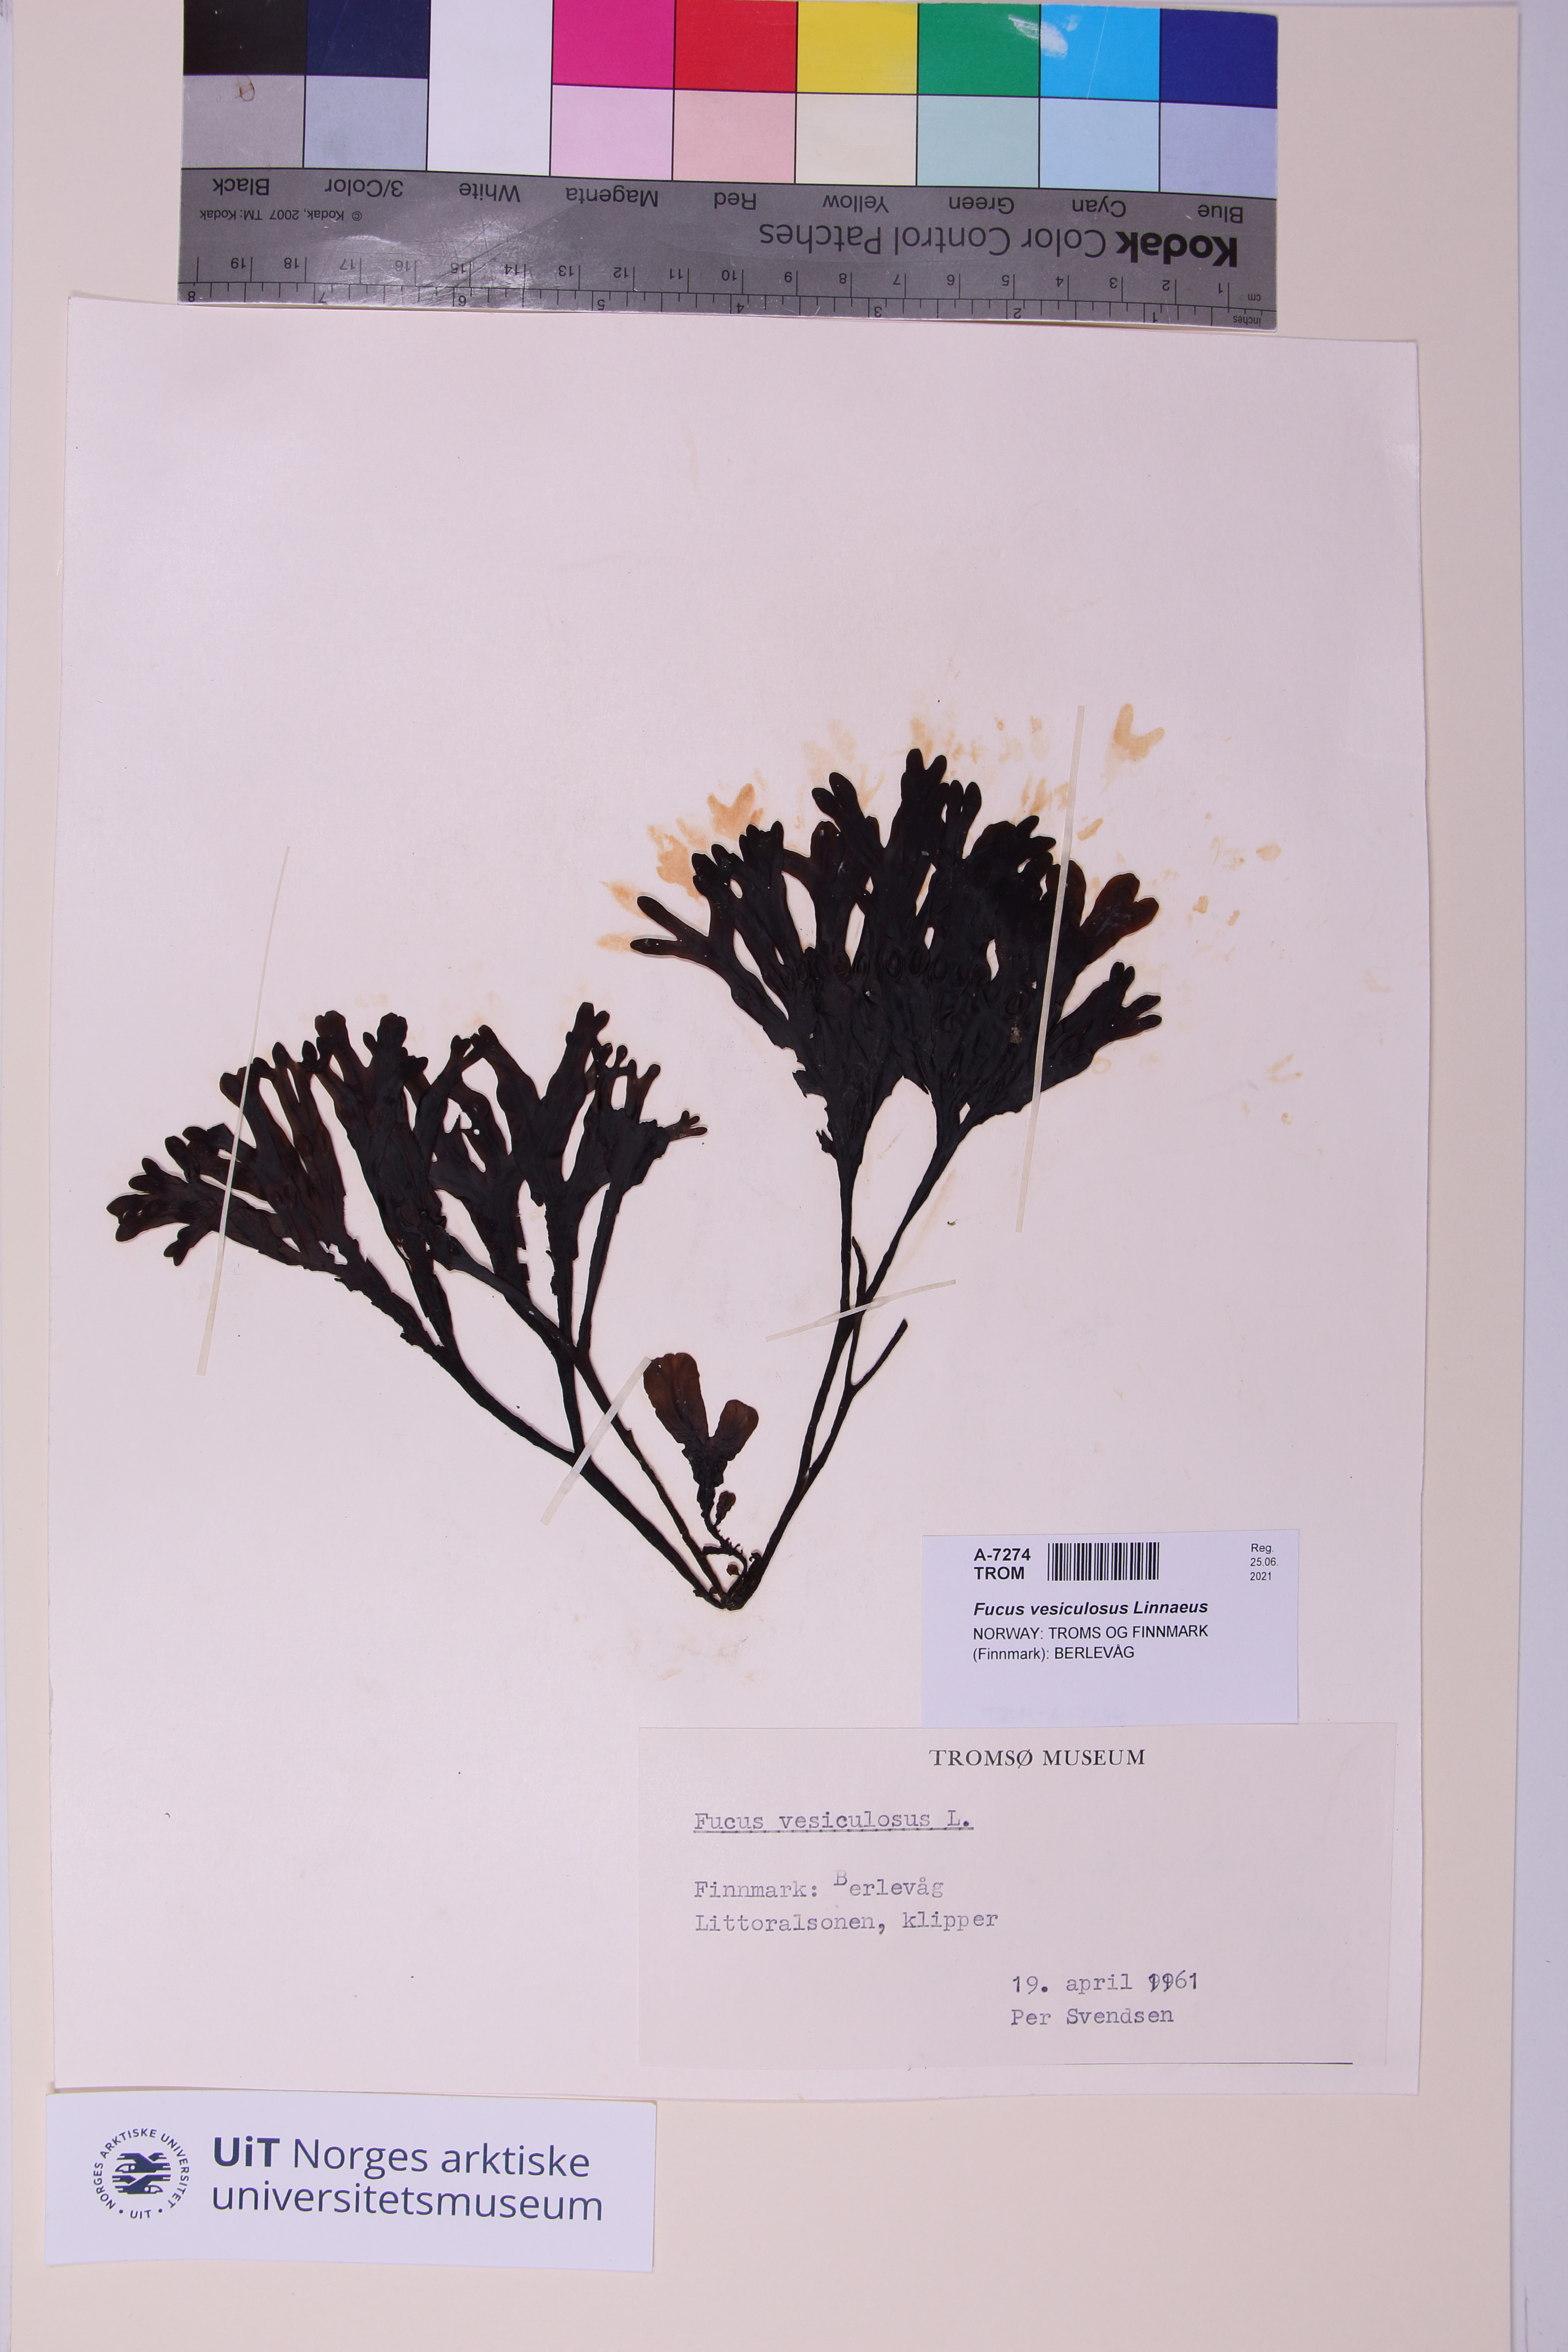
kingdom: Chromista
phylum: Ochrophyta
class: Phaeophyceae
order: Fucales
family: Fucaceae
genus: Fucus
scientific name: Fucus vesiculosus
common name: Bladder wrack
